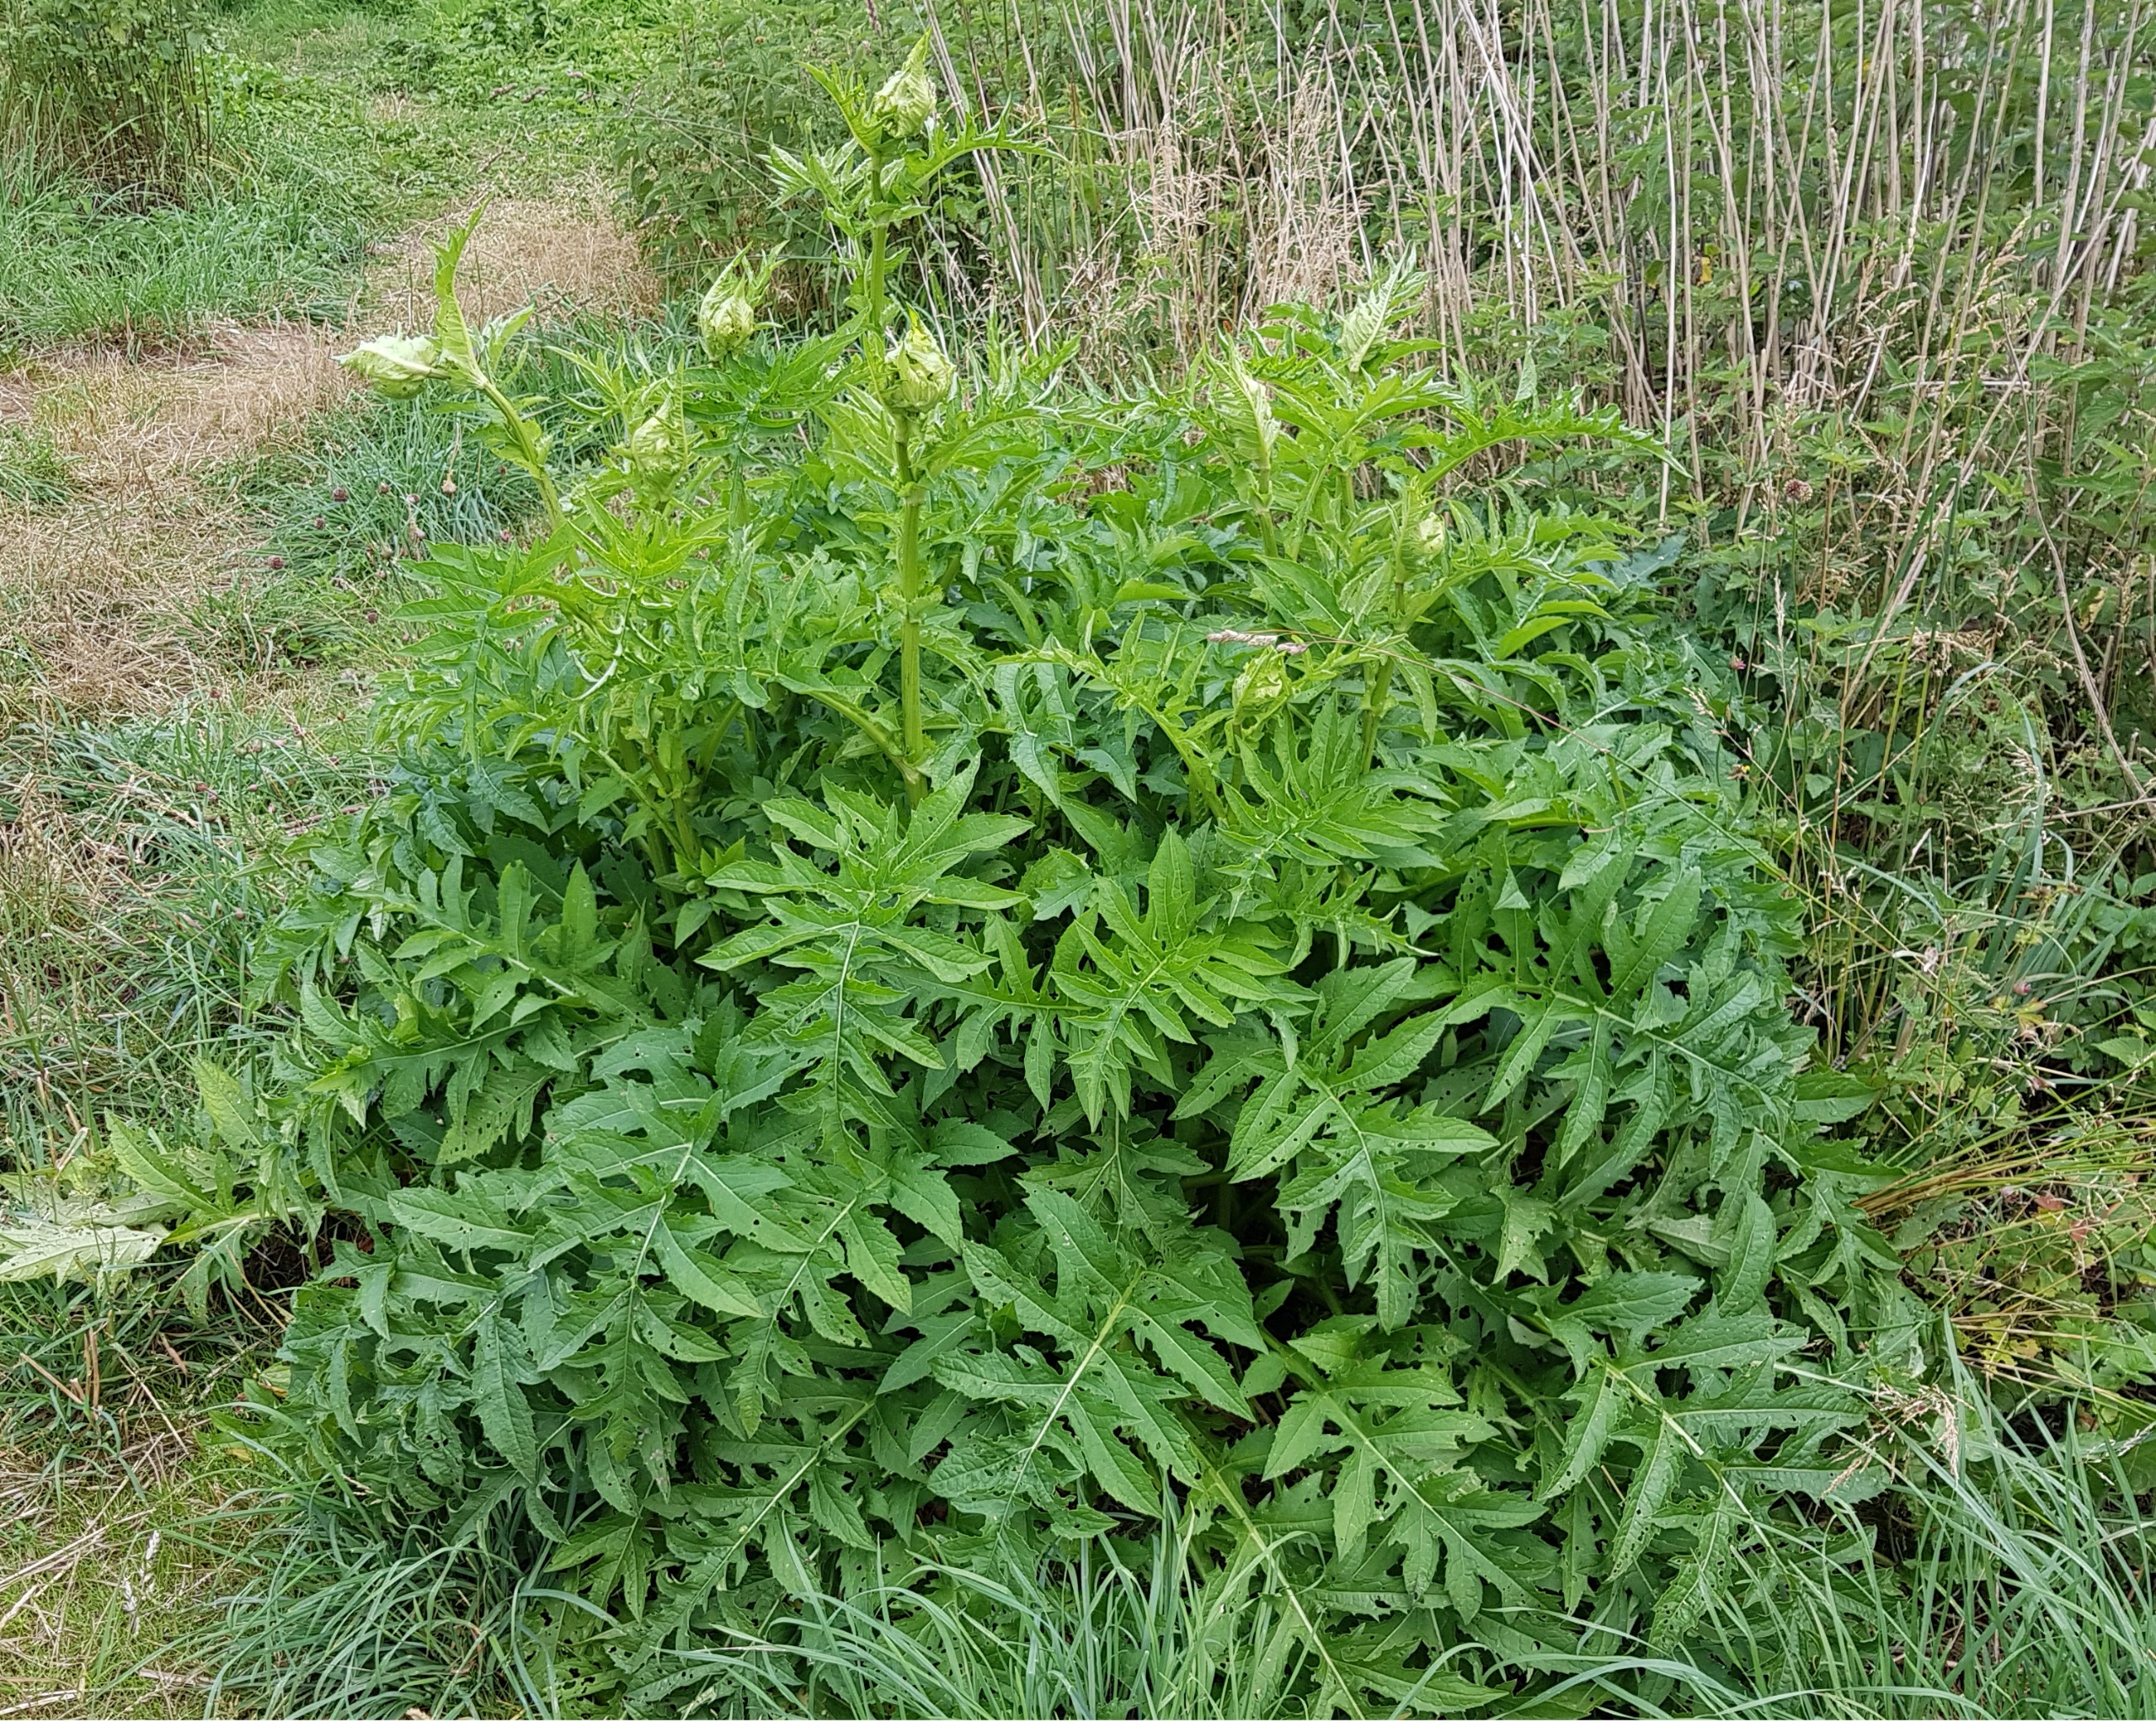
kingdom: Plantae
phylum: Tracheophyta
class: Magnoliopsida
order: Asterales
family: Asteraceae
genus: Cirsium
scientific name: Cirsium oleraceum
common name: Kål-tidsel
